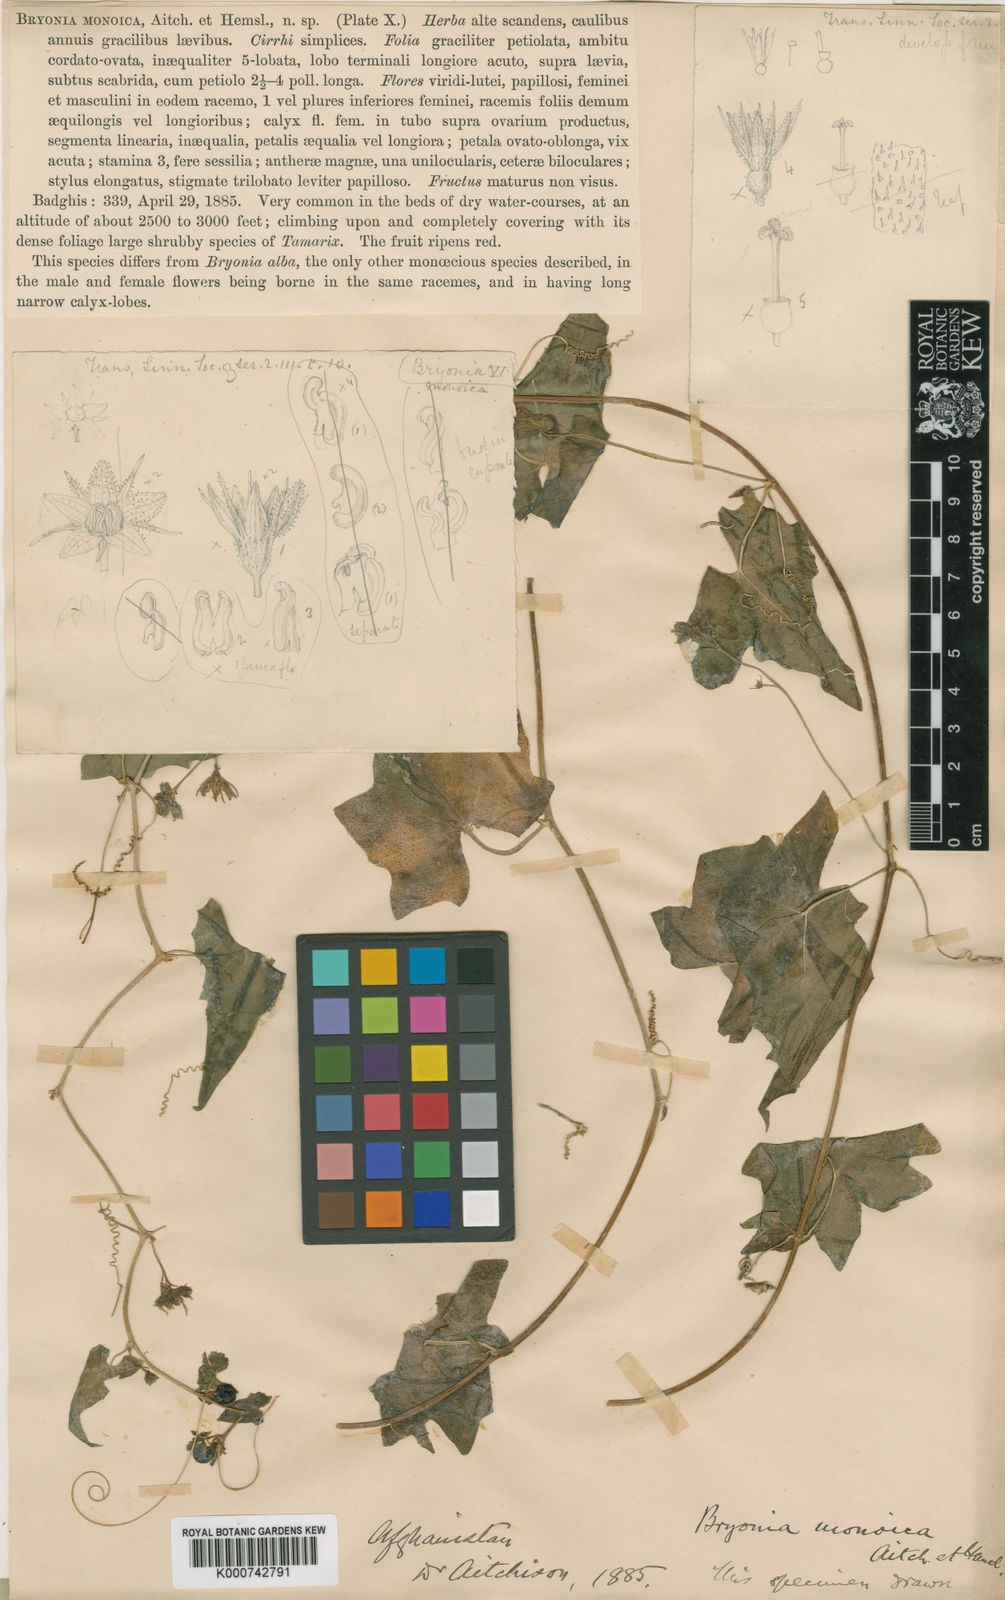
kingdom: Plantae
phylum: Tracheophyta
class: Magnoliopsida
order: Cucurbitales
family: Cucurbitaceae
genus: Bryonia
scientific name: Bryonia monoica
